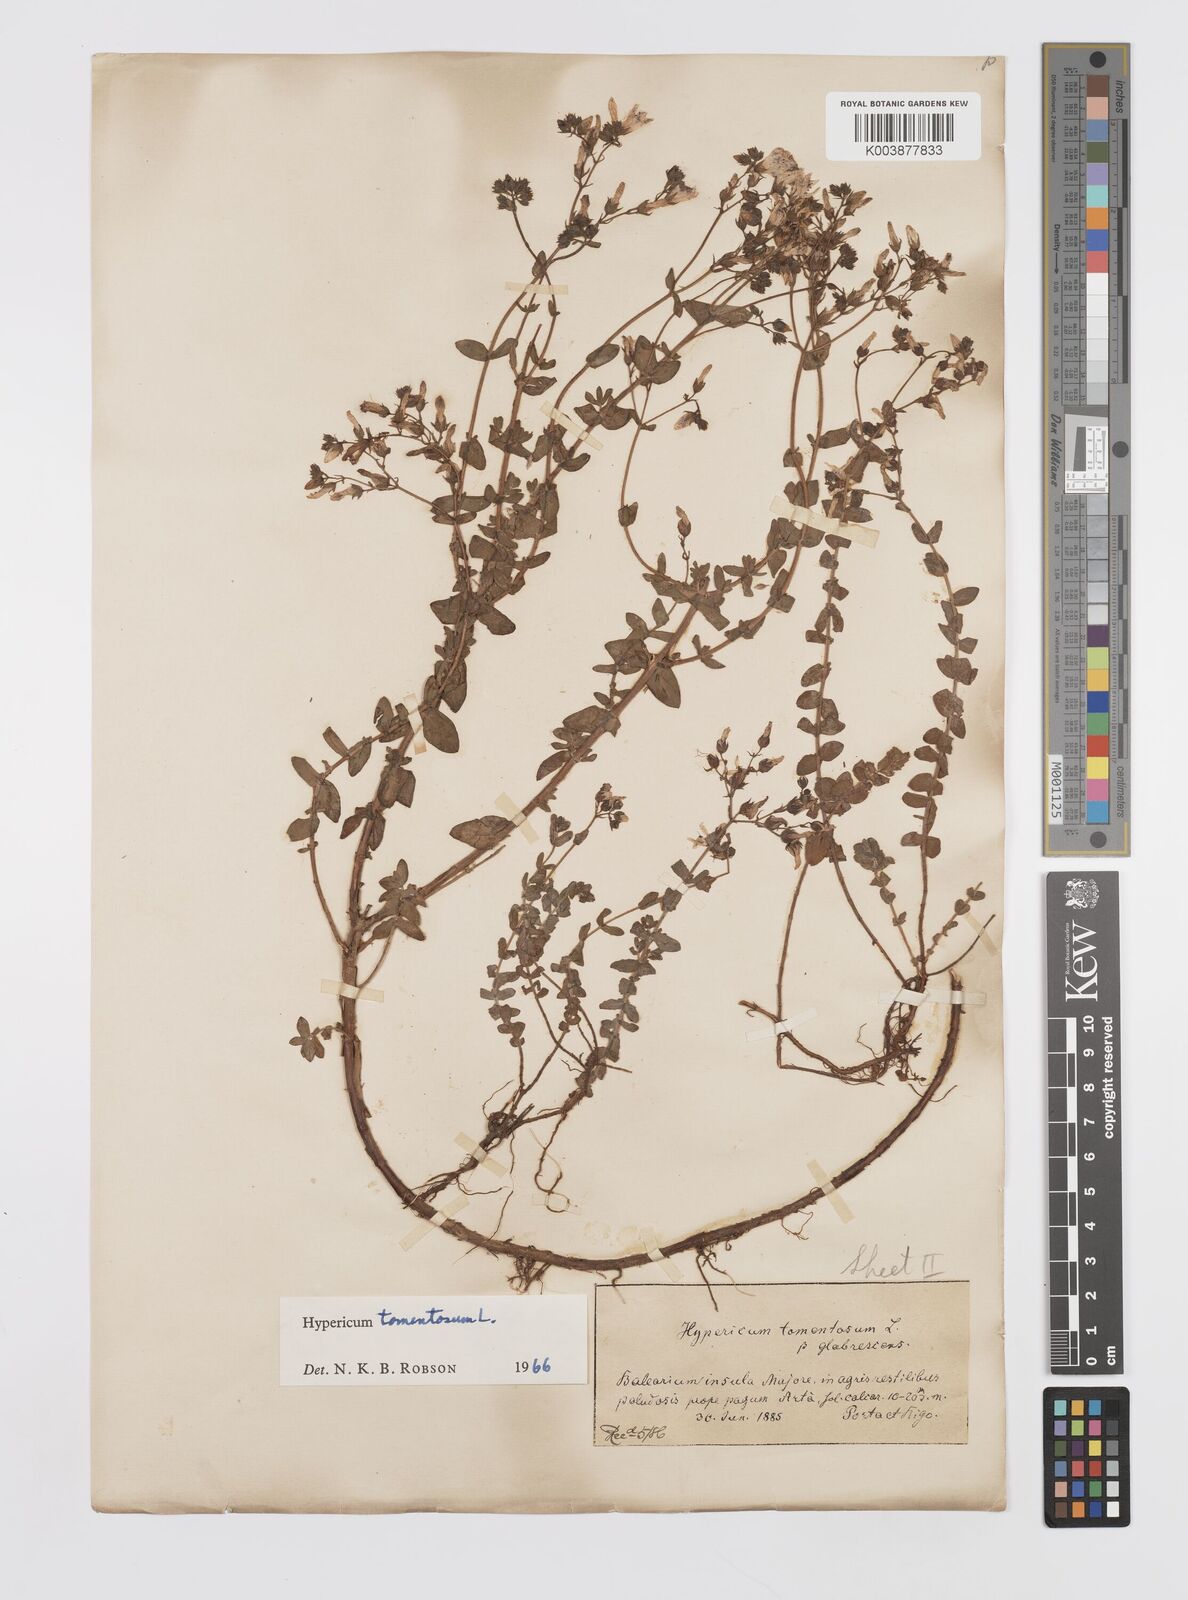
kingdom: Plantae
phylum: Tracheophyta
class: Magnoliopsida
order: Malpighiales
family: Hypericaceae
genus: Hypericum
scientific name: Hypericum tomentosum
